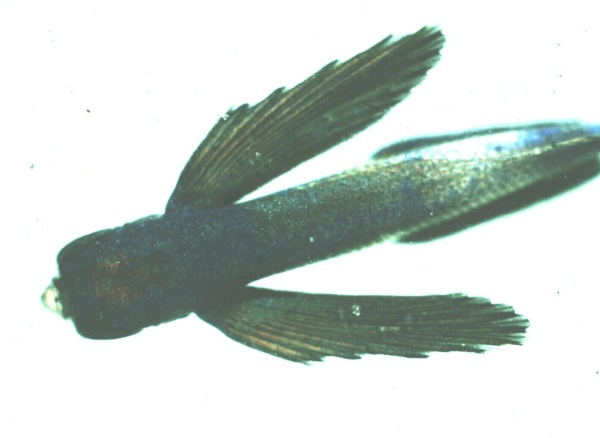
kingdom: Animalia
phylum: Chordata
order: Beloniformes
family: Exocoetidae
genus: Prognichthys
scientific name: Prognichthys sealei
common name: Sailor flyingfish
